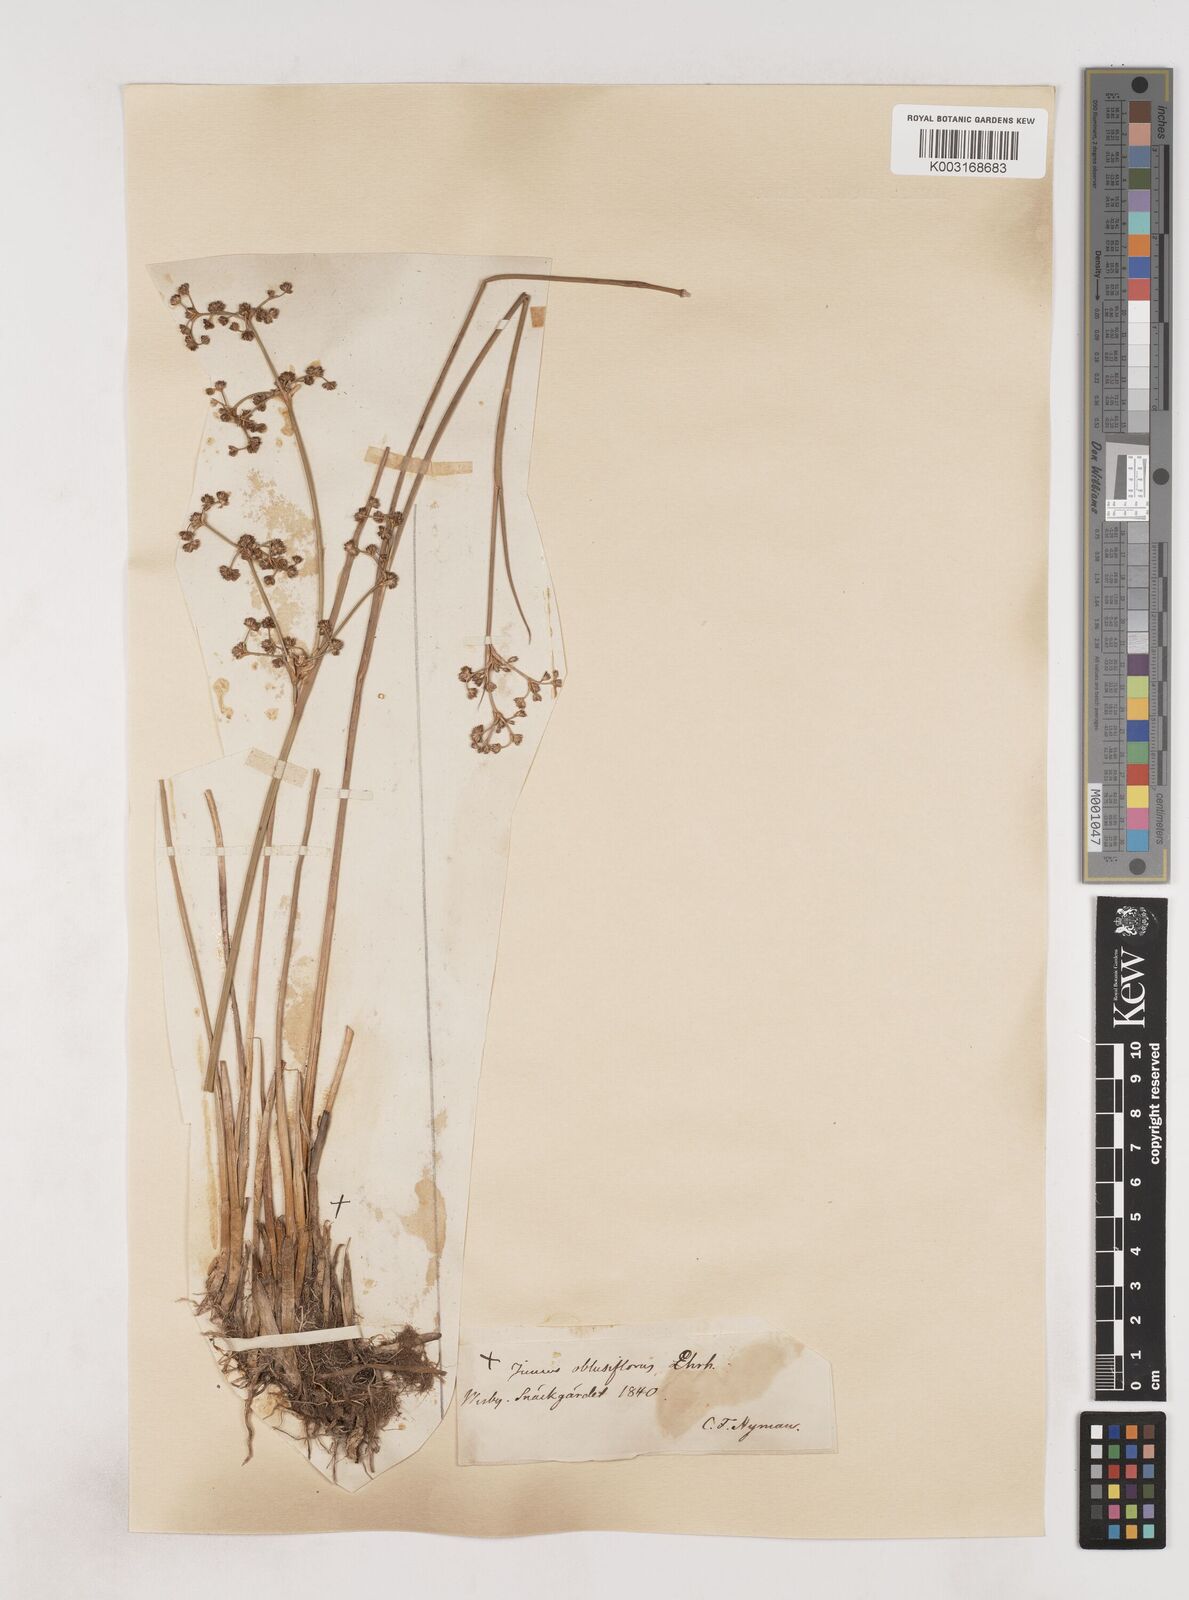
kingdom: Plantae
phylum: Tracheophyta
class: Liliopsida
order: Poales
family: Juncaceae
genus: Juncus
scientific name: Juncus subnodulosus
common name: Blunt-flowered rush
